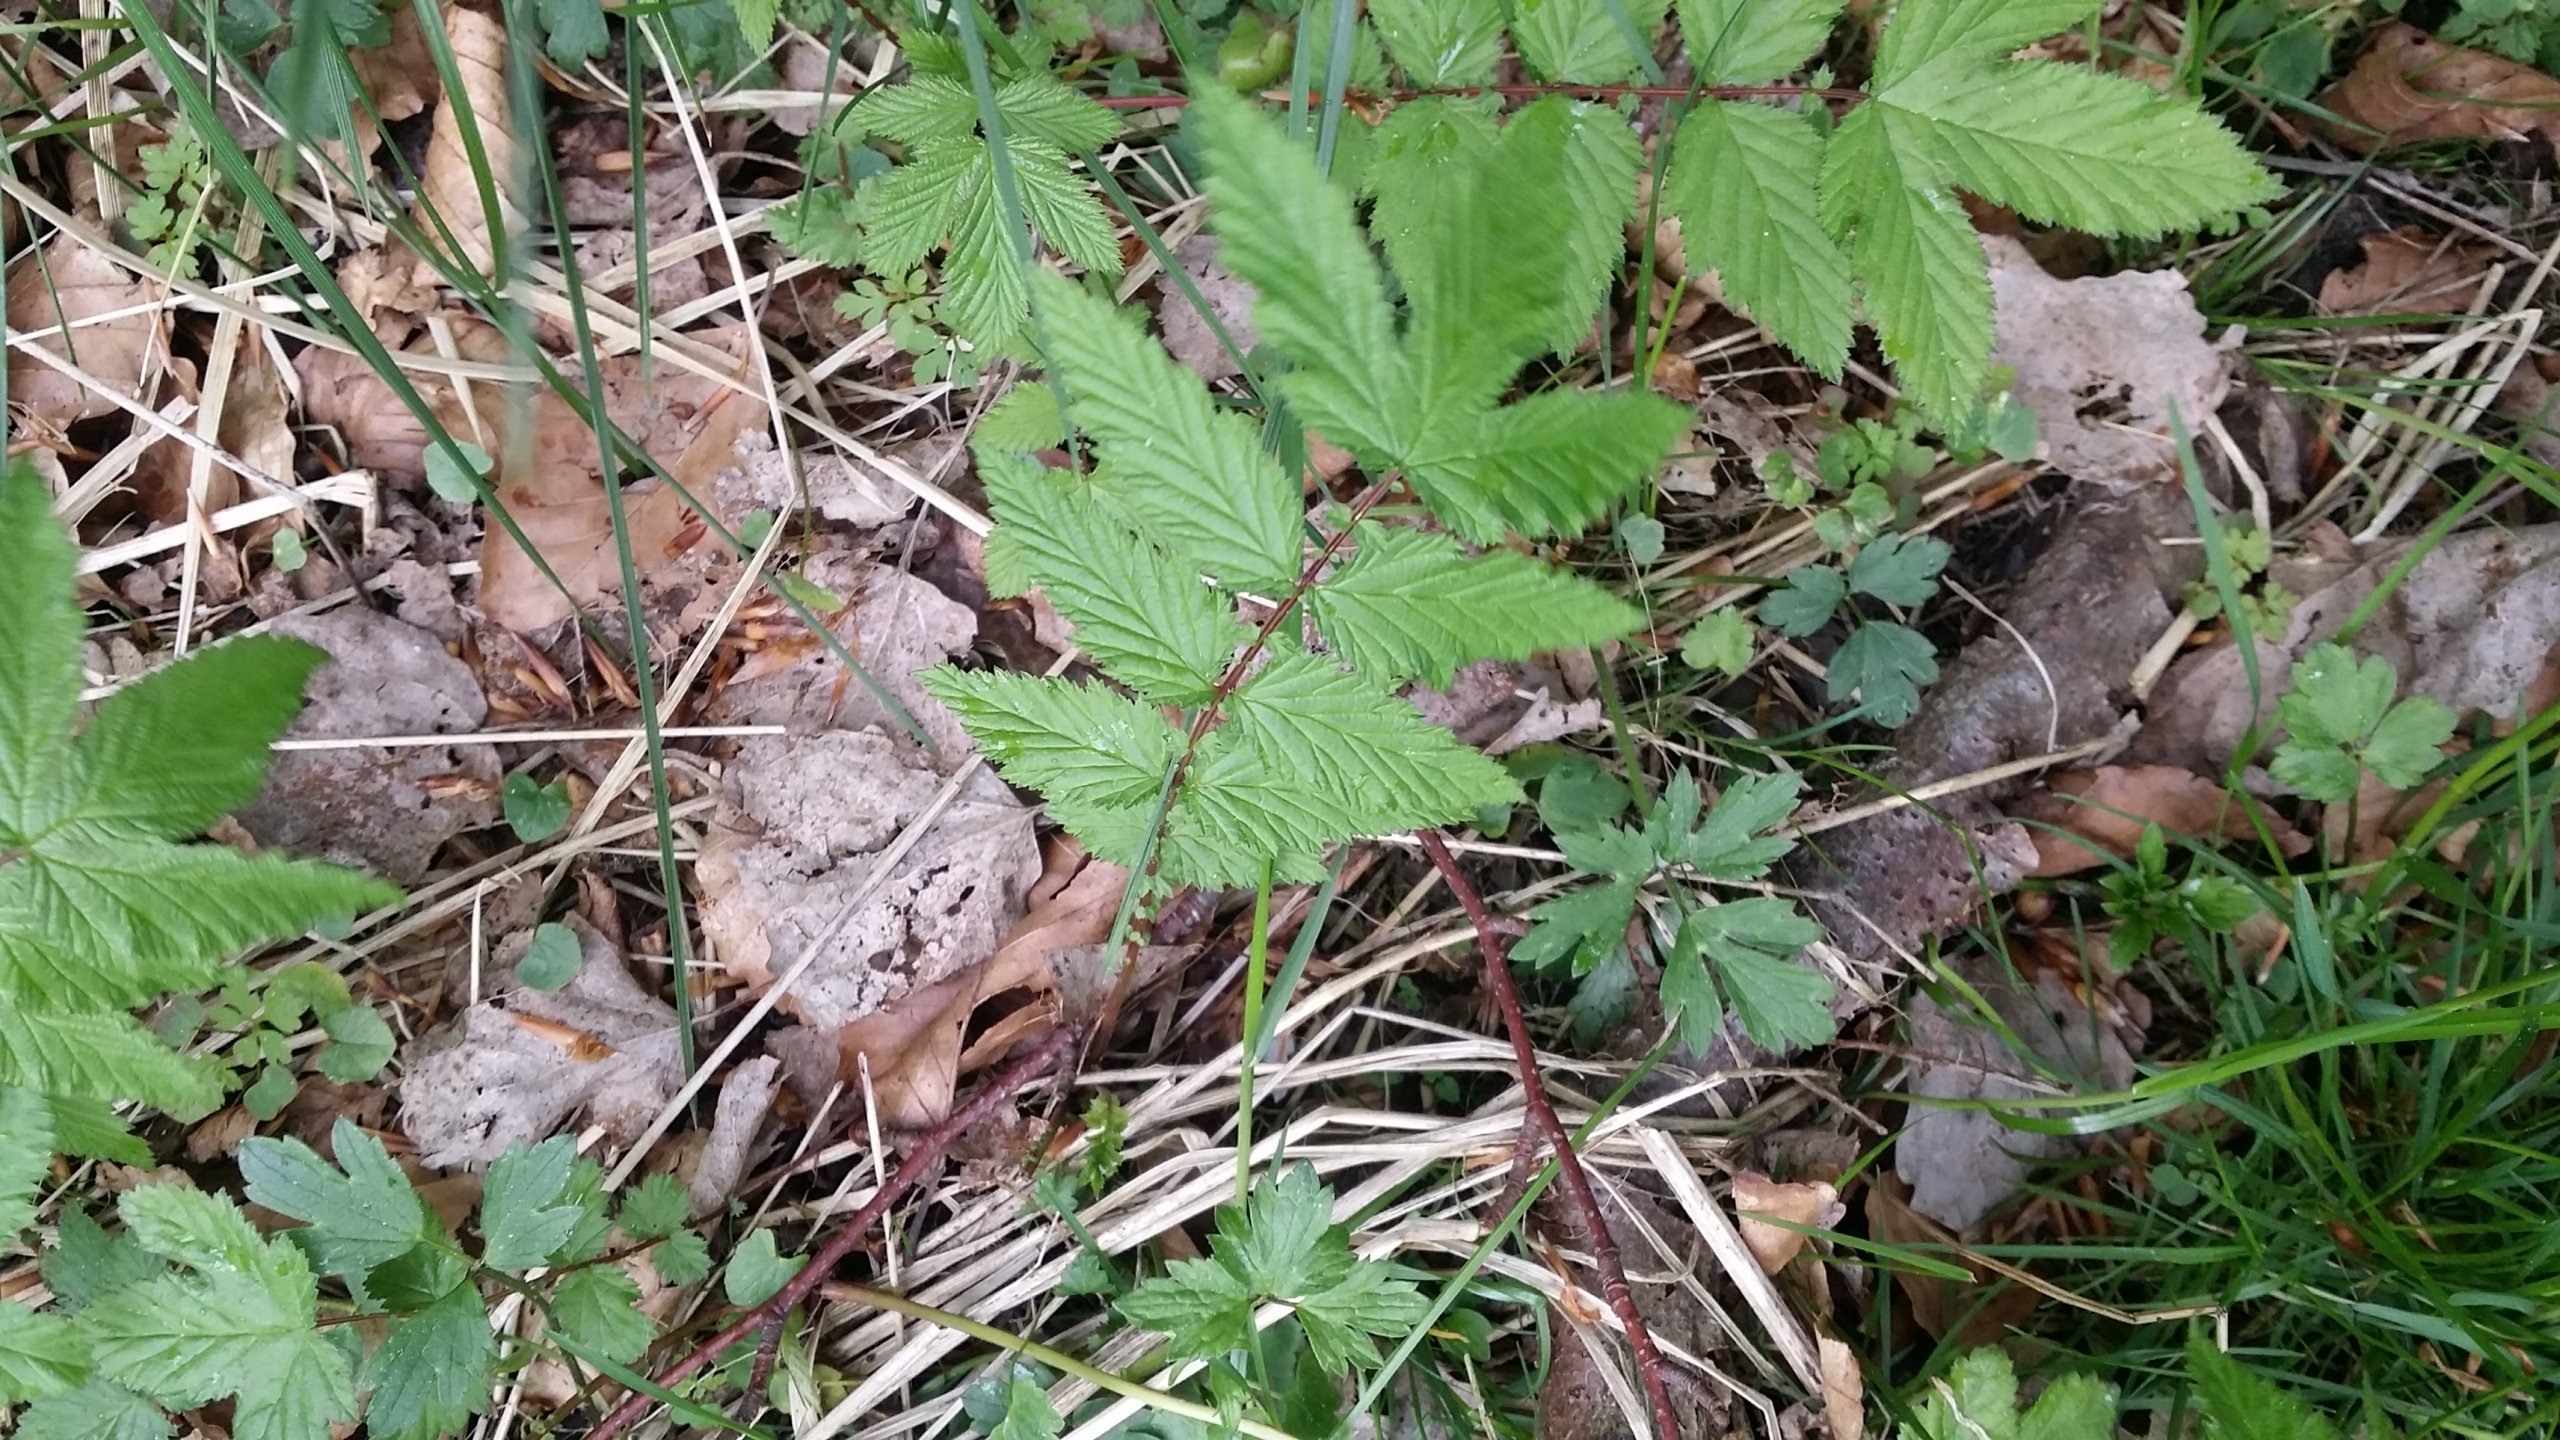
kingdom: Plantae
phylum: Tracheophyta
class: Magnoliopsida
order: Rosales
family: Rosaceae
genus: Filipendula
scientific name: Filipendula ulmaria
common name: Almindelig mjødurt
